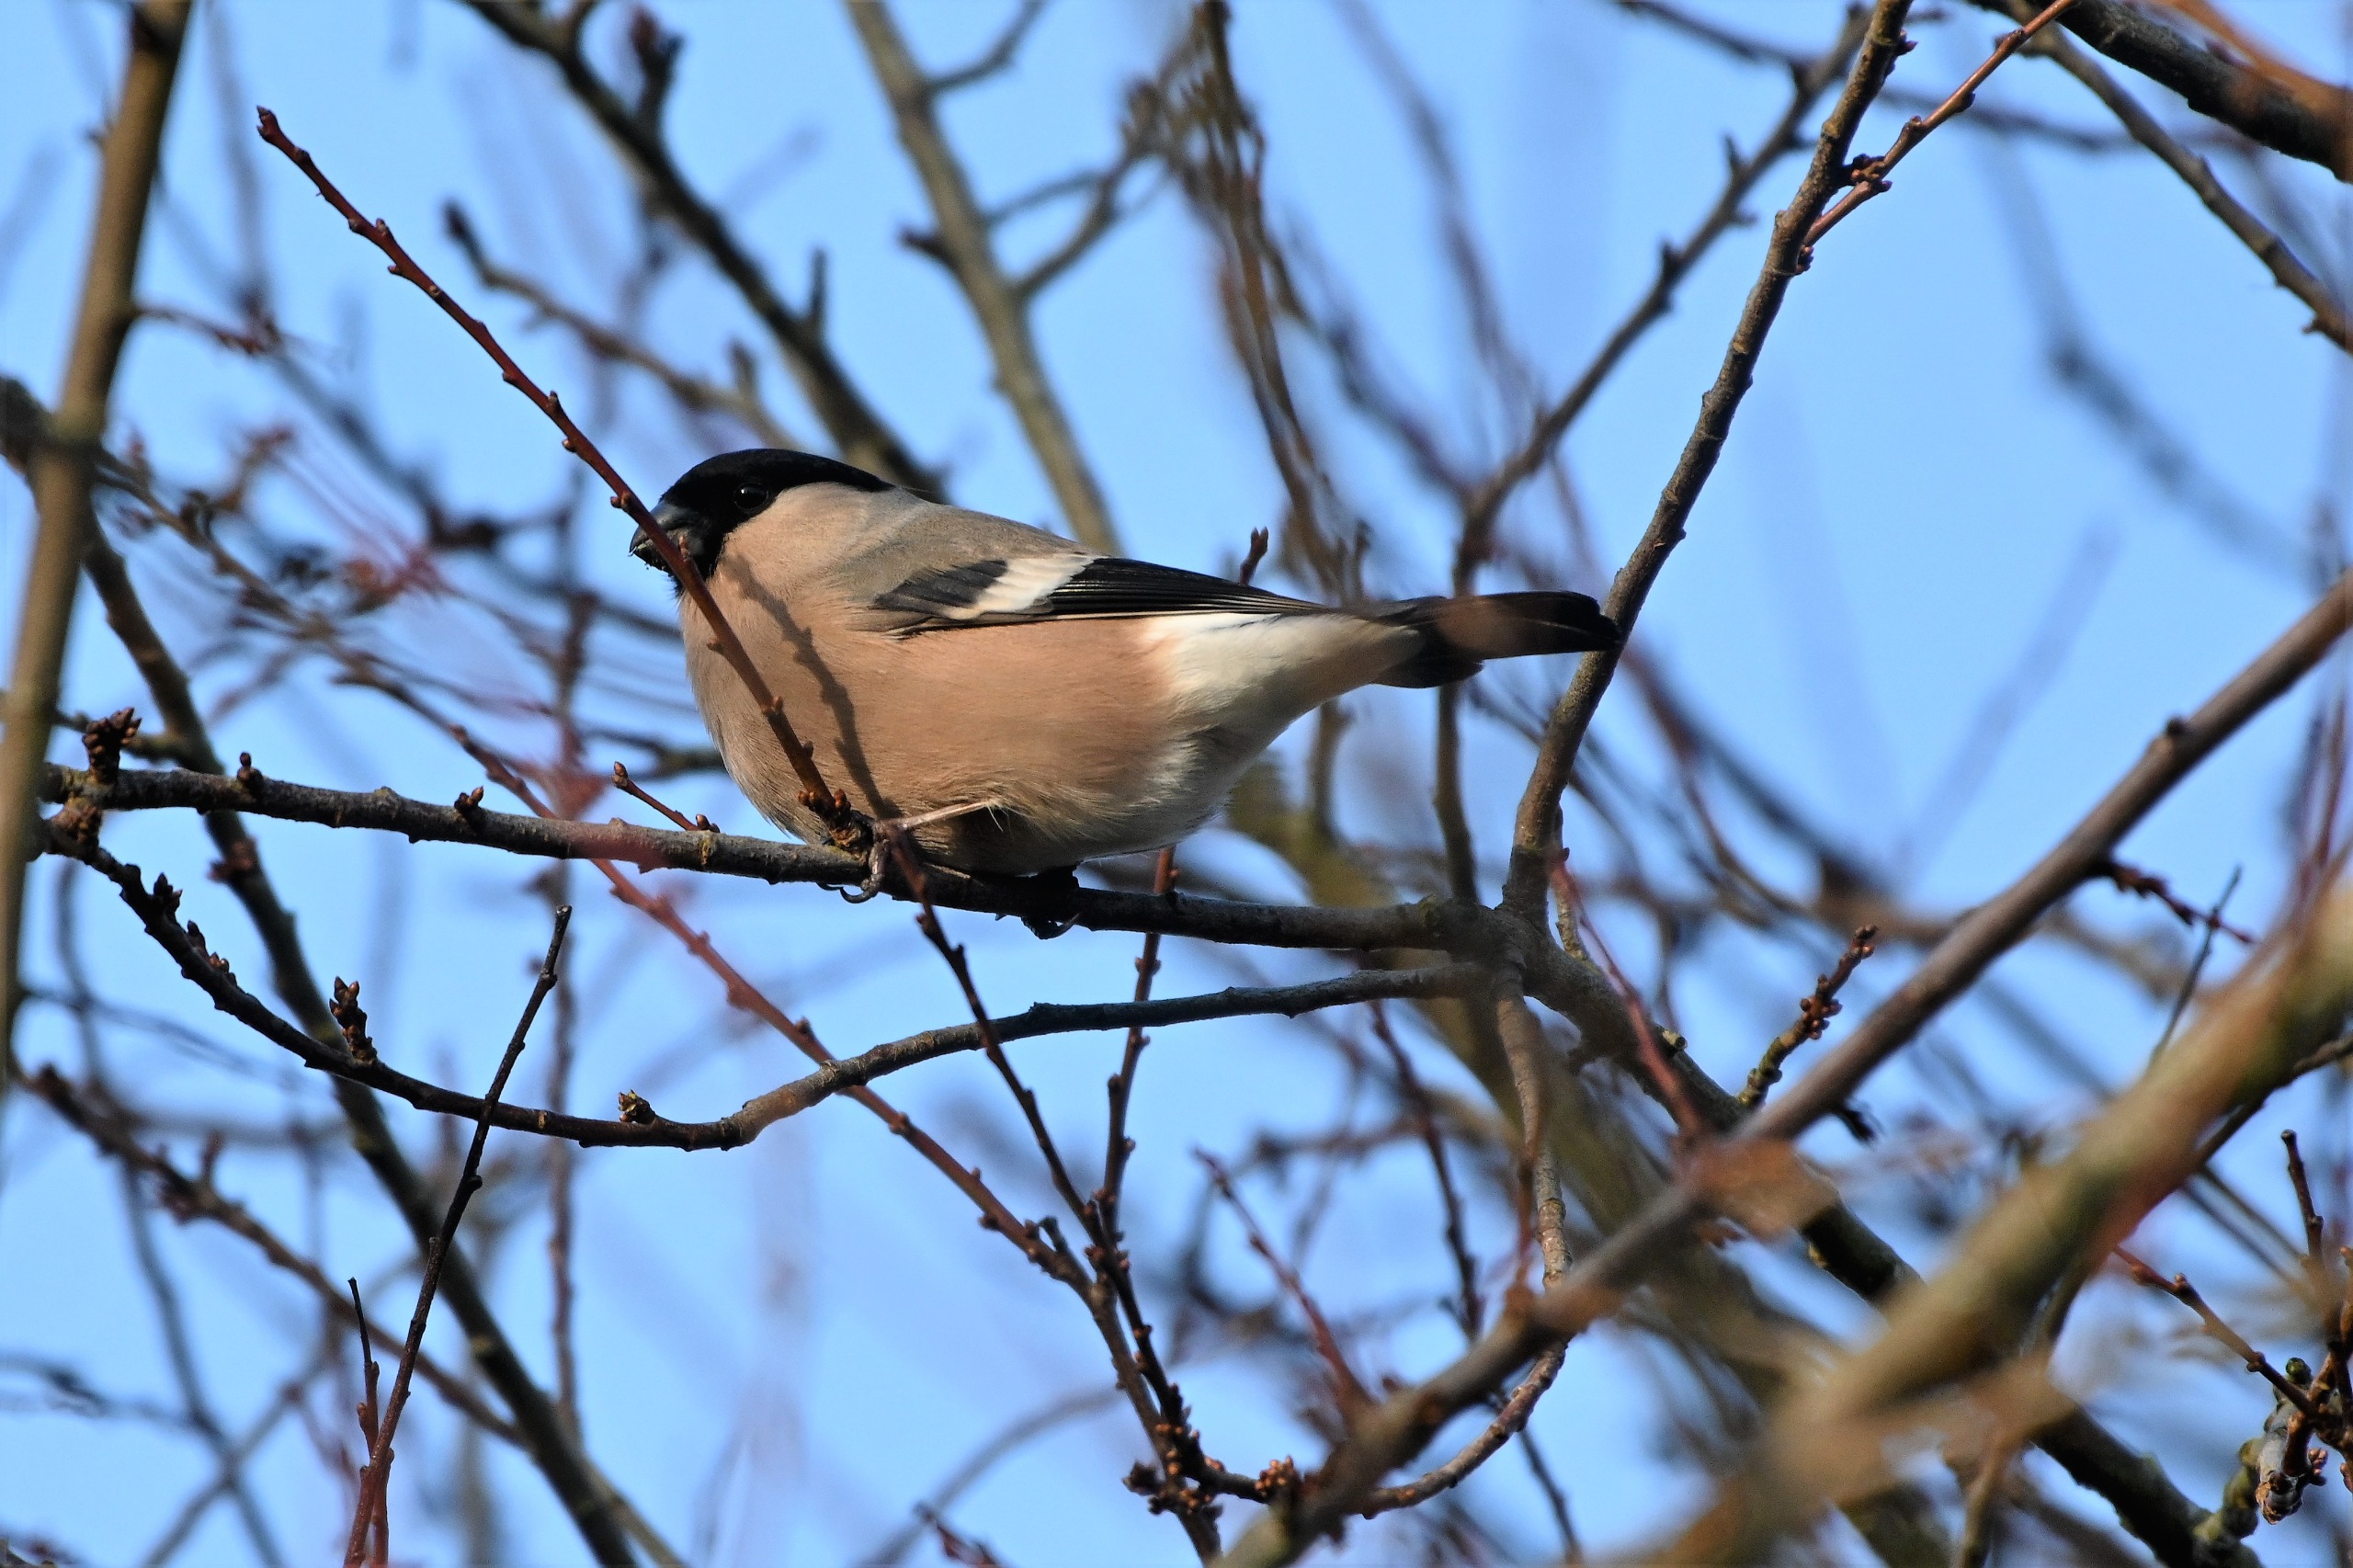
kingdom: Animalia
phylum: Chordata
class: Aves
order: Passeriformes
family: Fringillidae
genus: Pyrrhula
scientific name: Pyrrhula pyrrhula
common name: Dompap
